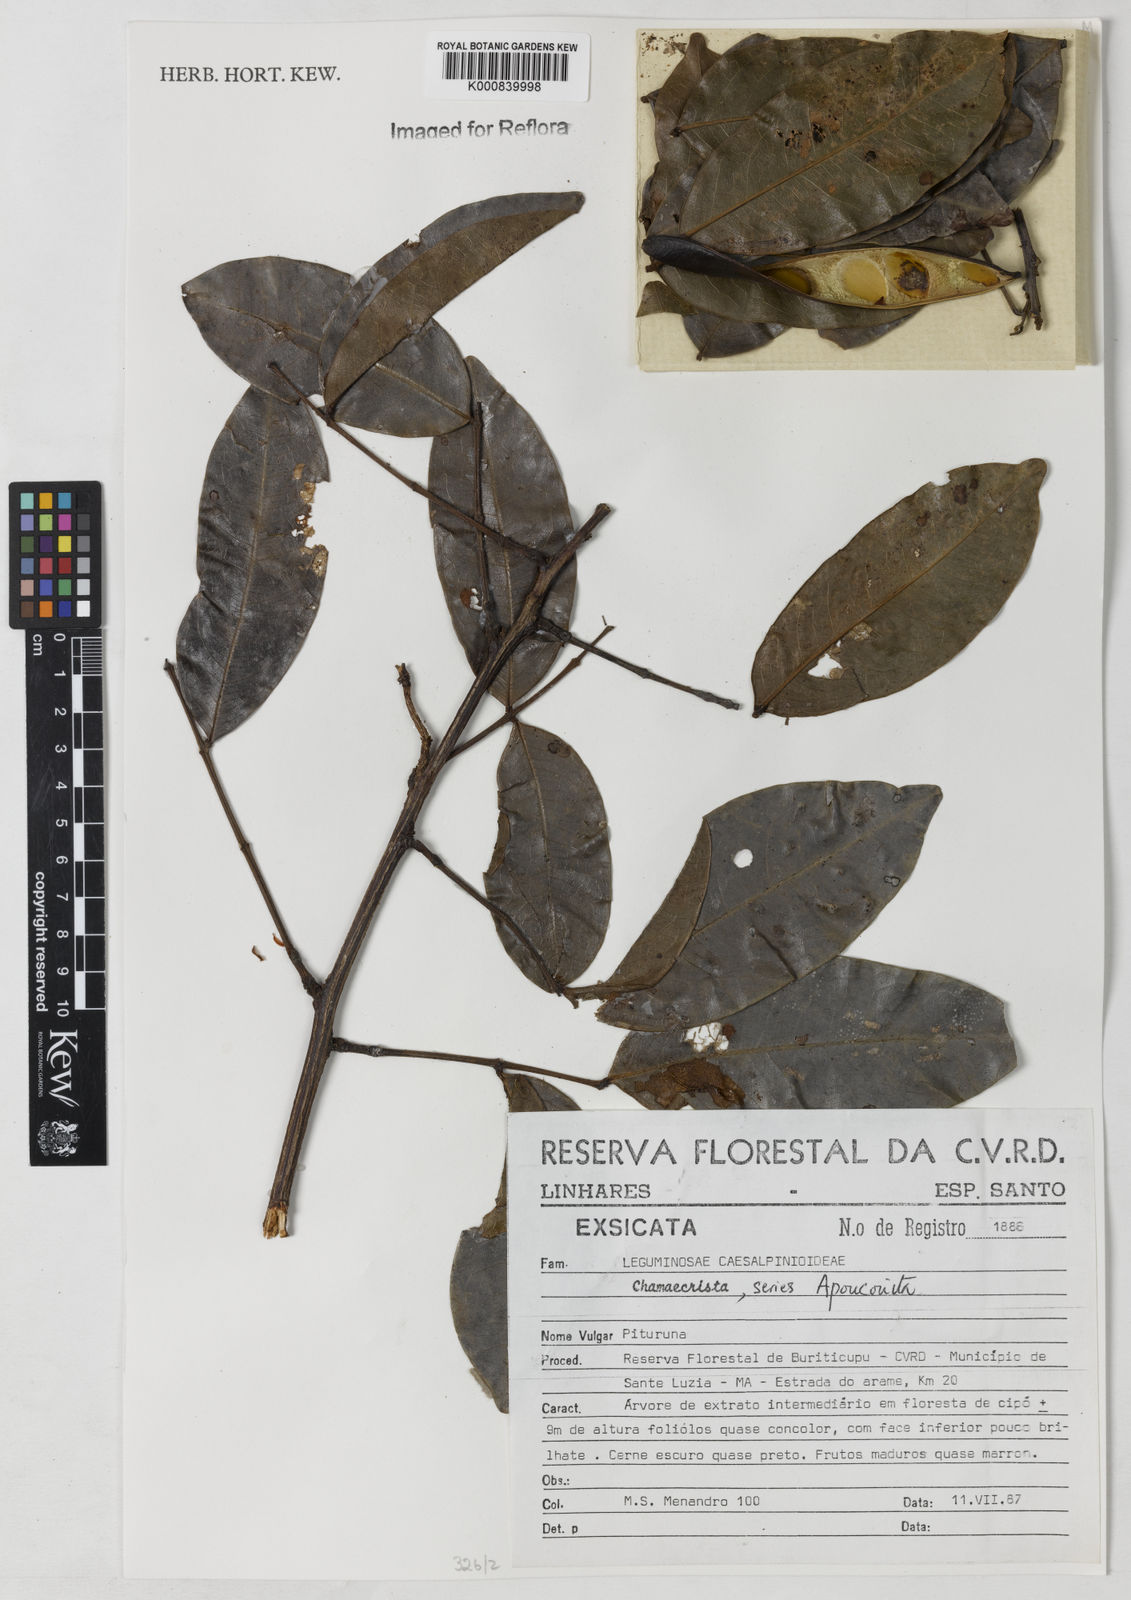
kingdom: Plantae
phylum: Tracheophyta
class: Magnoliopsida
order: Fabales
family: Fabaceae
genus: Chamaecrista
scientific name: Chamaecrista
